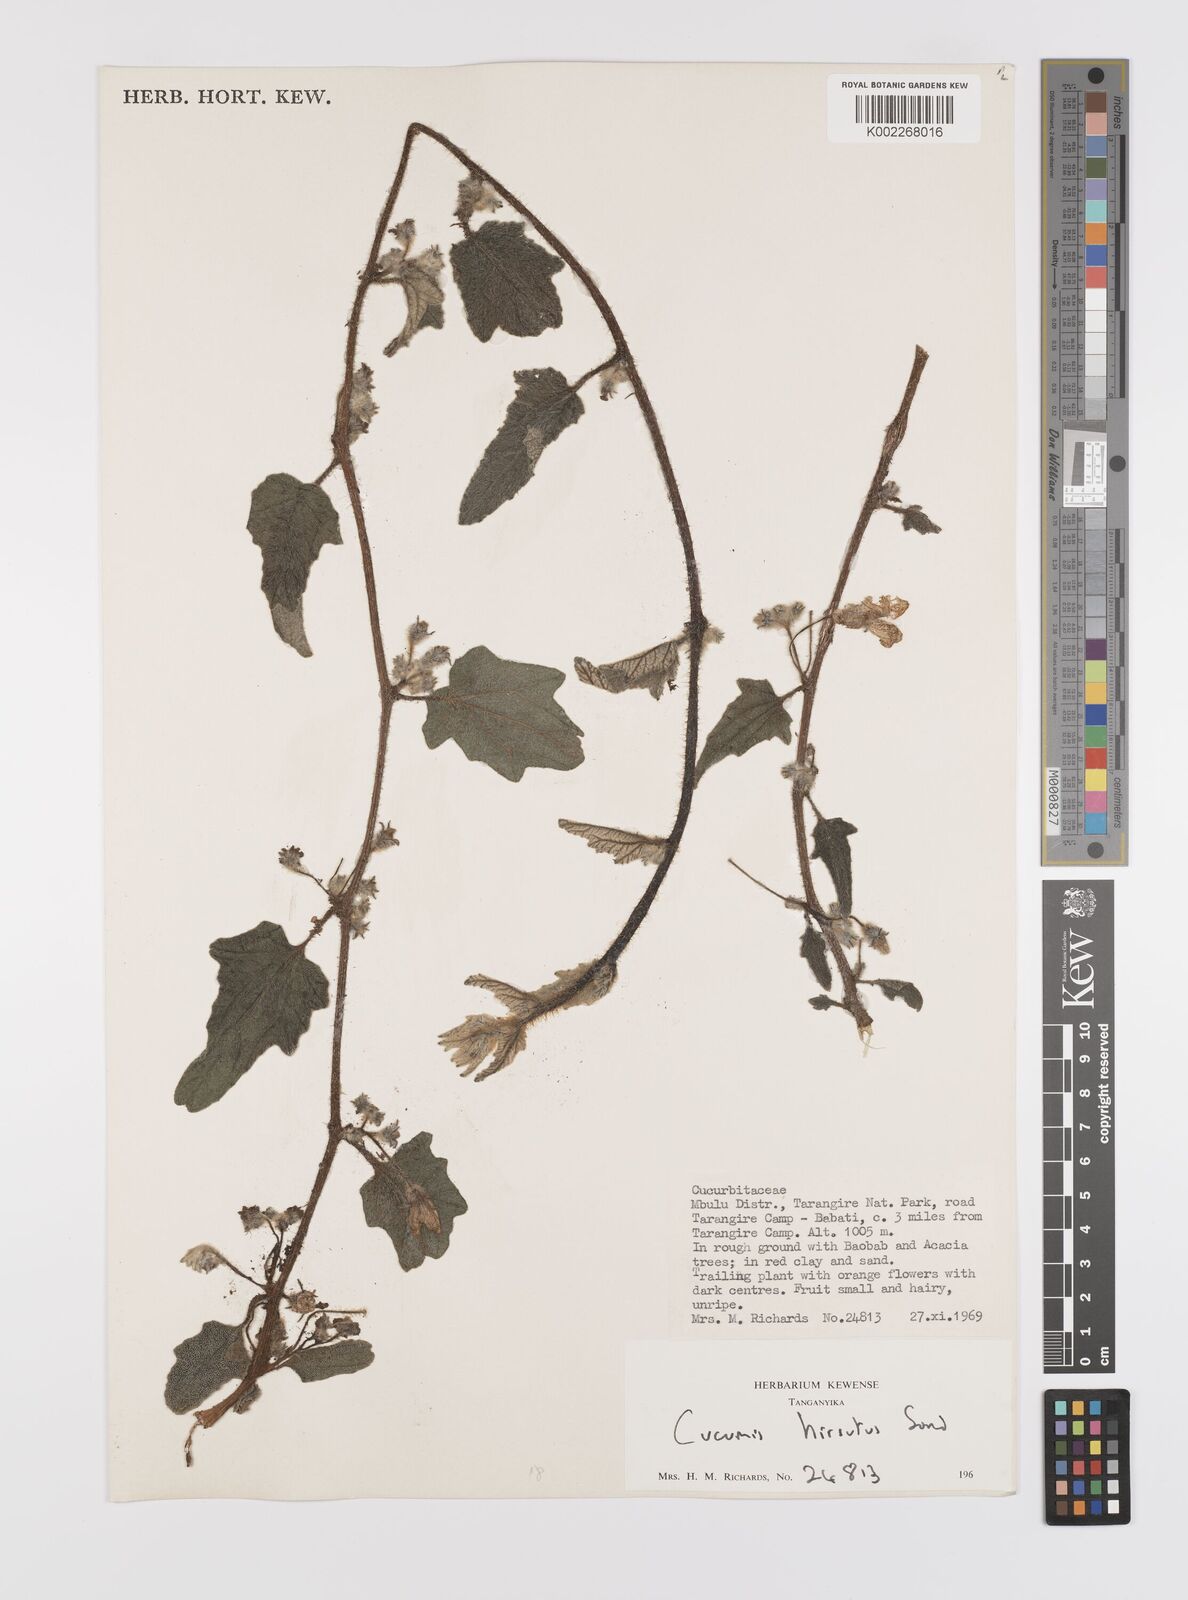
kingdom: Plantae
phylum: Tracheophyta
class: Magnoliopsida
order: Cucurbitales
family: Cucurbitaceae
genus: Cucumis
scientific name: Cucumis hirsutus
